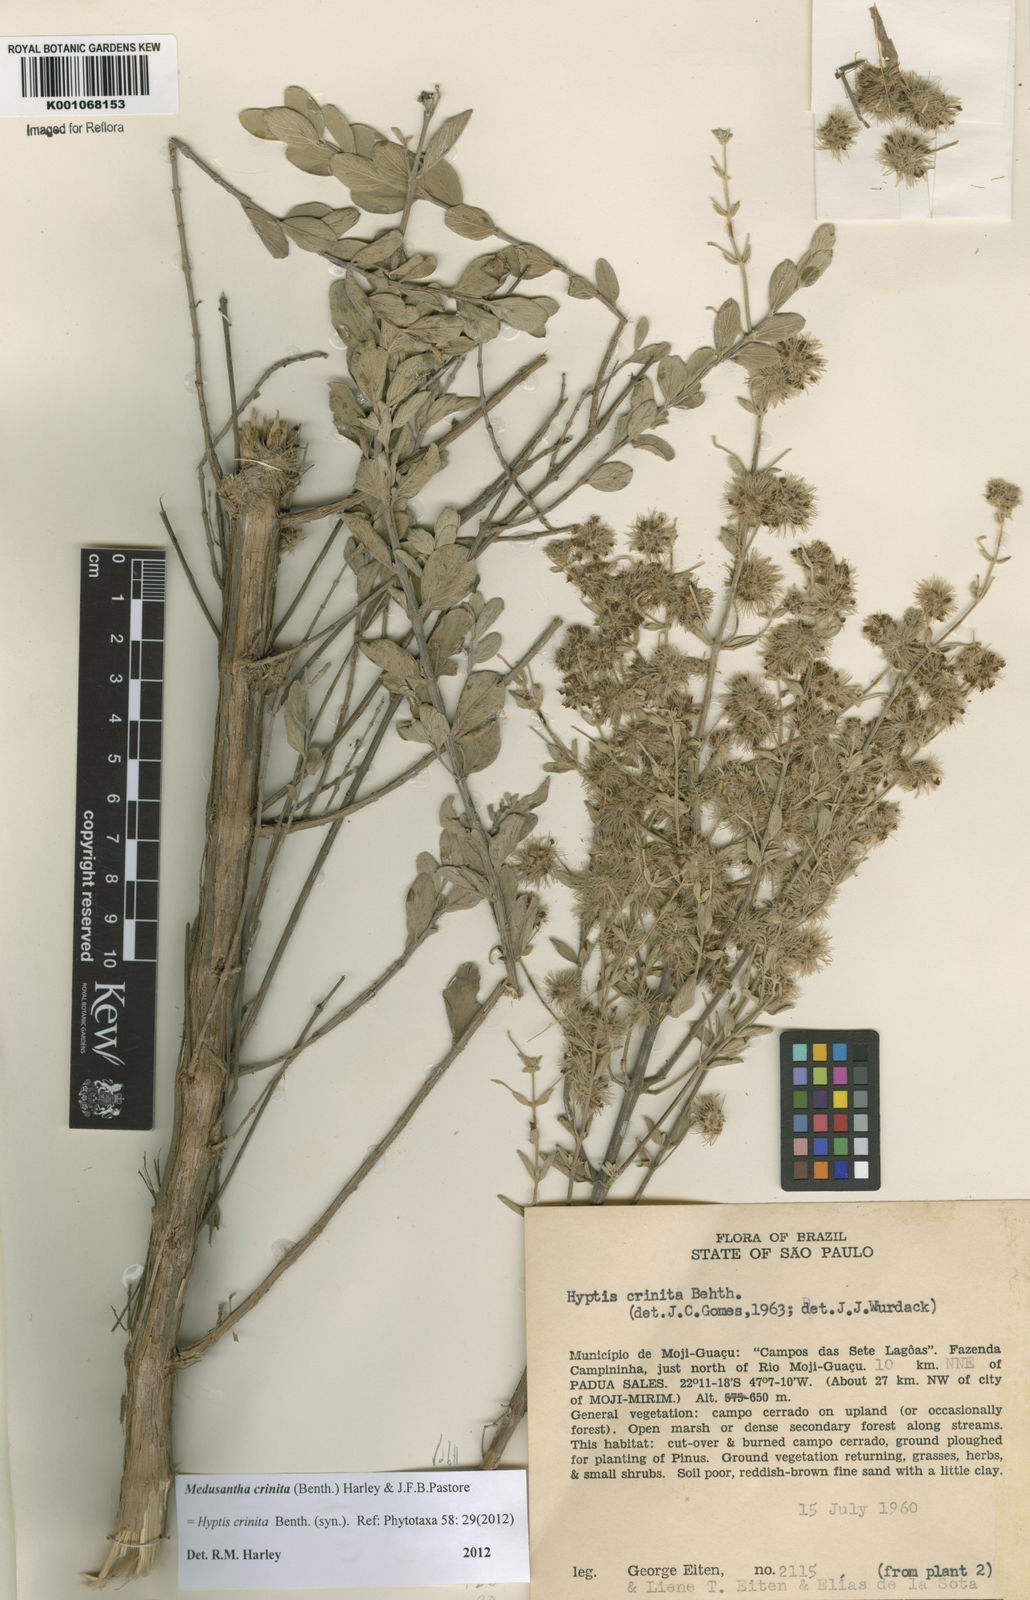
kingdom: Plantae
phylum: Tracheophyta
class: Magnoliopsida
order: Lamiales
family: Lamiaceae
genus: Medusantha
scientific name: Medusantha crinita
